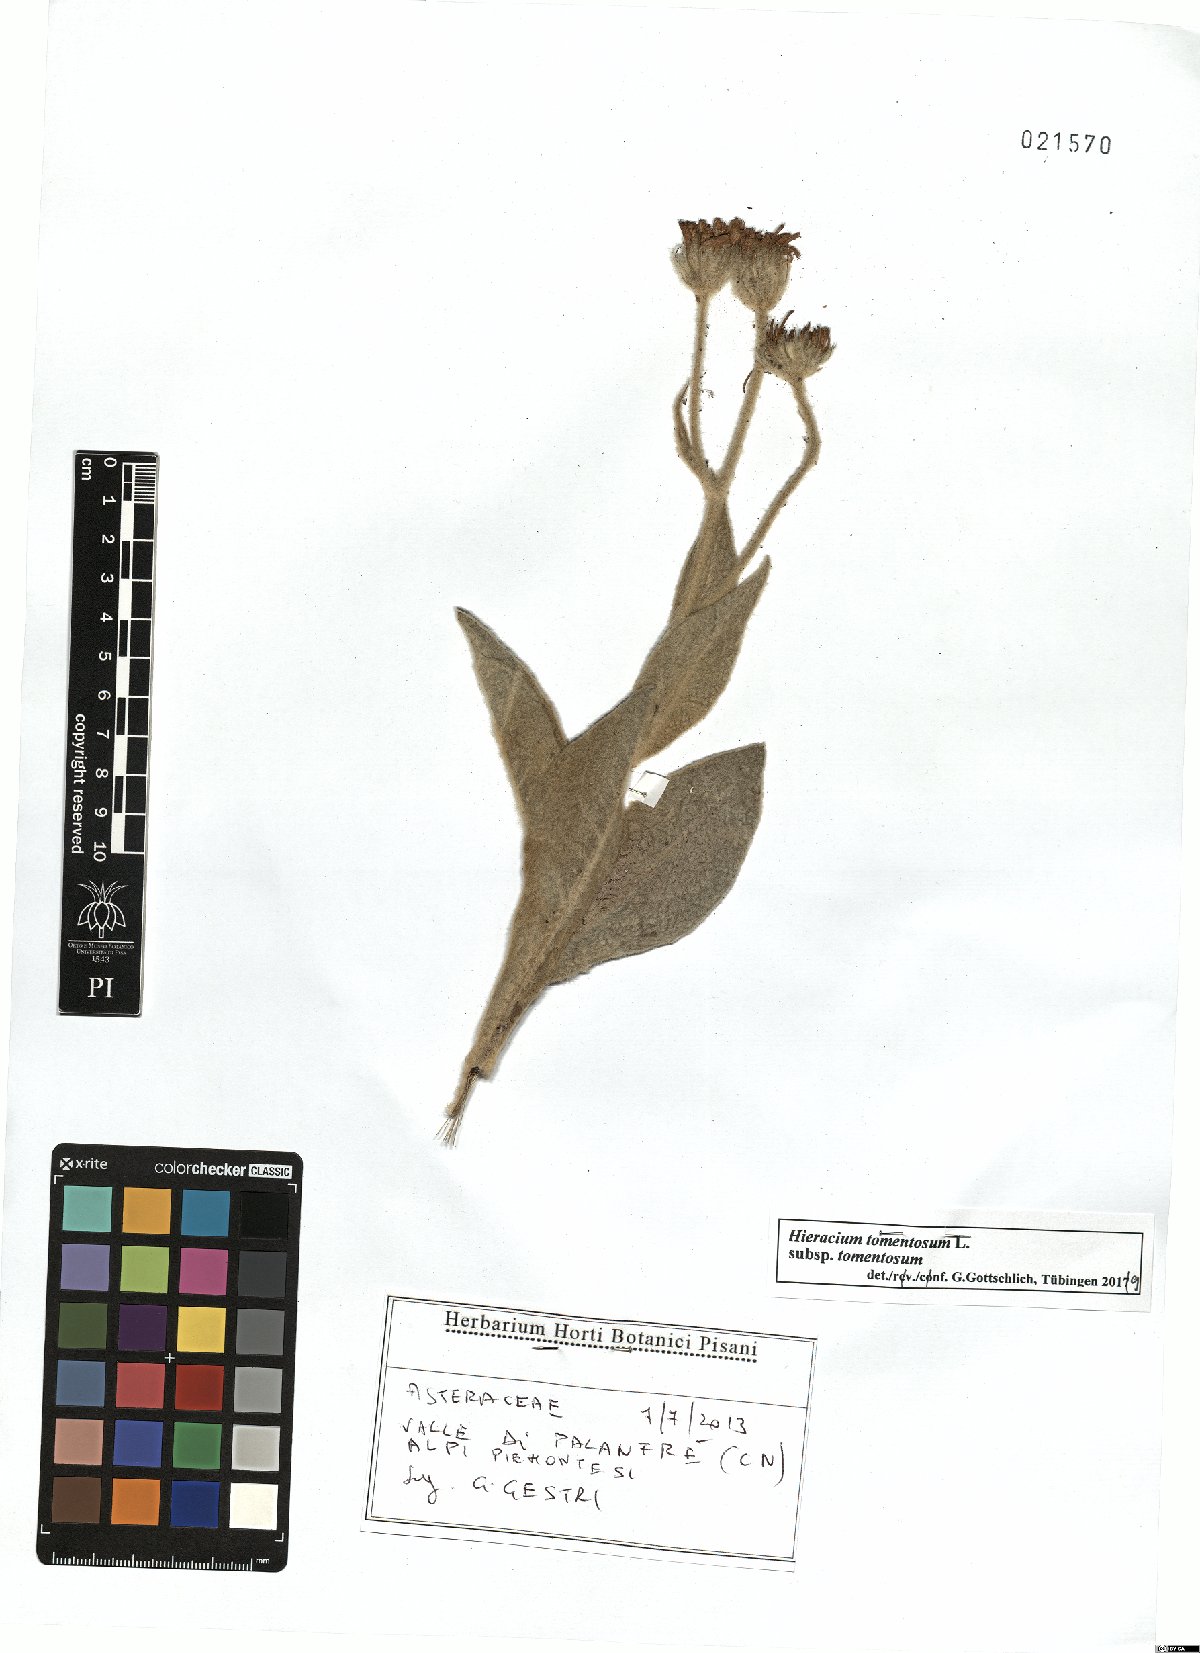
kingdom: Plantae
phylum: Tracheophyta
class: Magnoliopsida
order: Asterales
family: Asteraceae
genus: Hieracium
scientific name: Hieracium tomentosum
